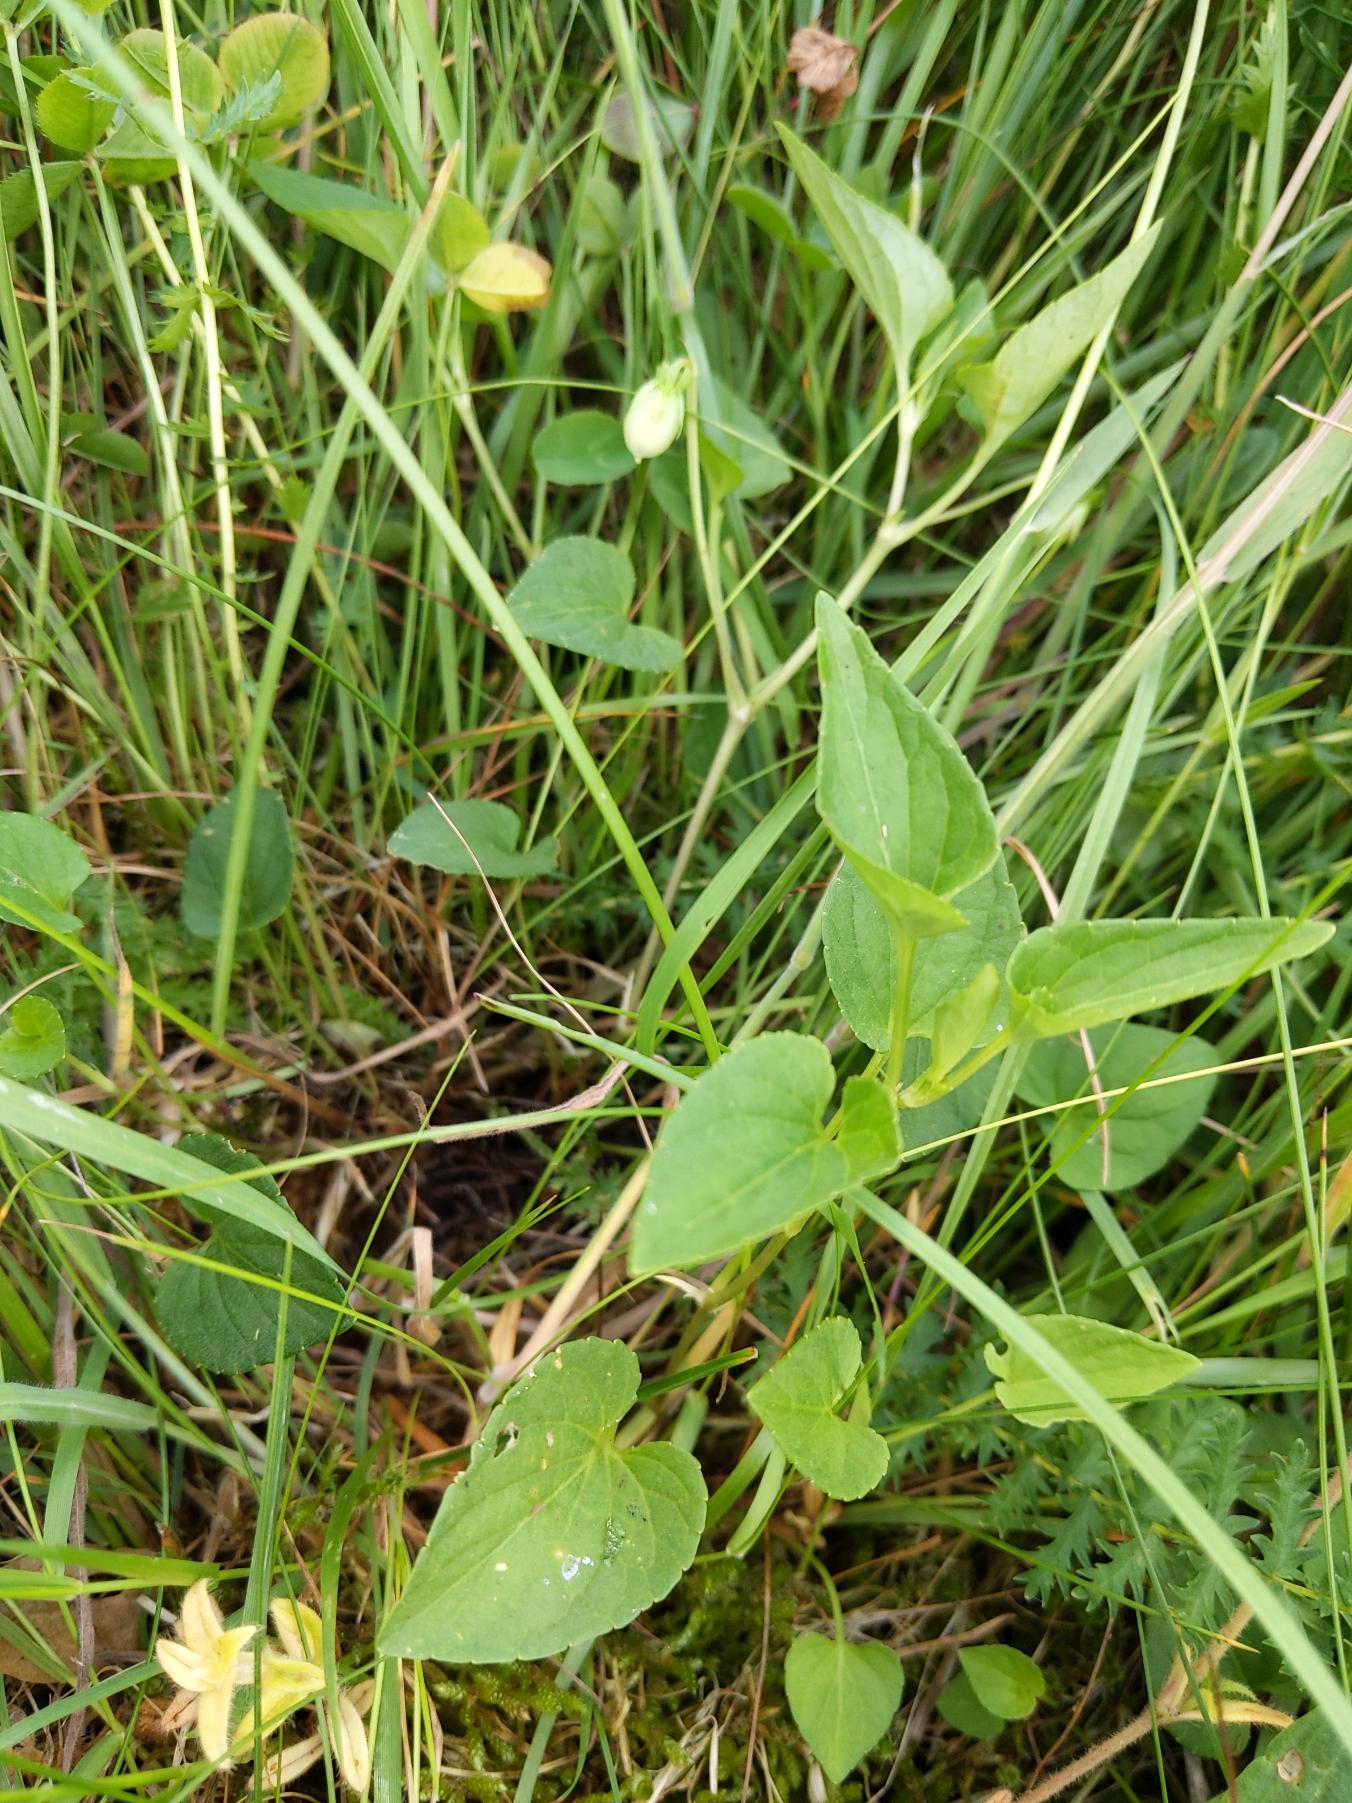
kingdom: Plantae
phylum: Tracheophyta
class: Magnoliopsida
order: Malpighiales
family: Violaceae
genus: Viola
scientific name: Viola canina
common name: Hunde-viol
